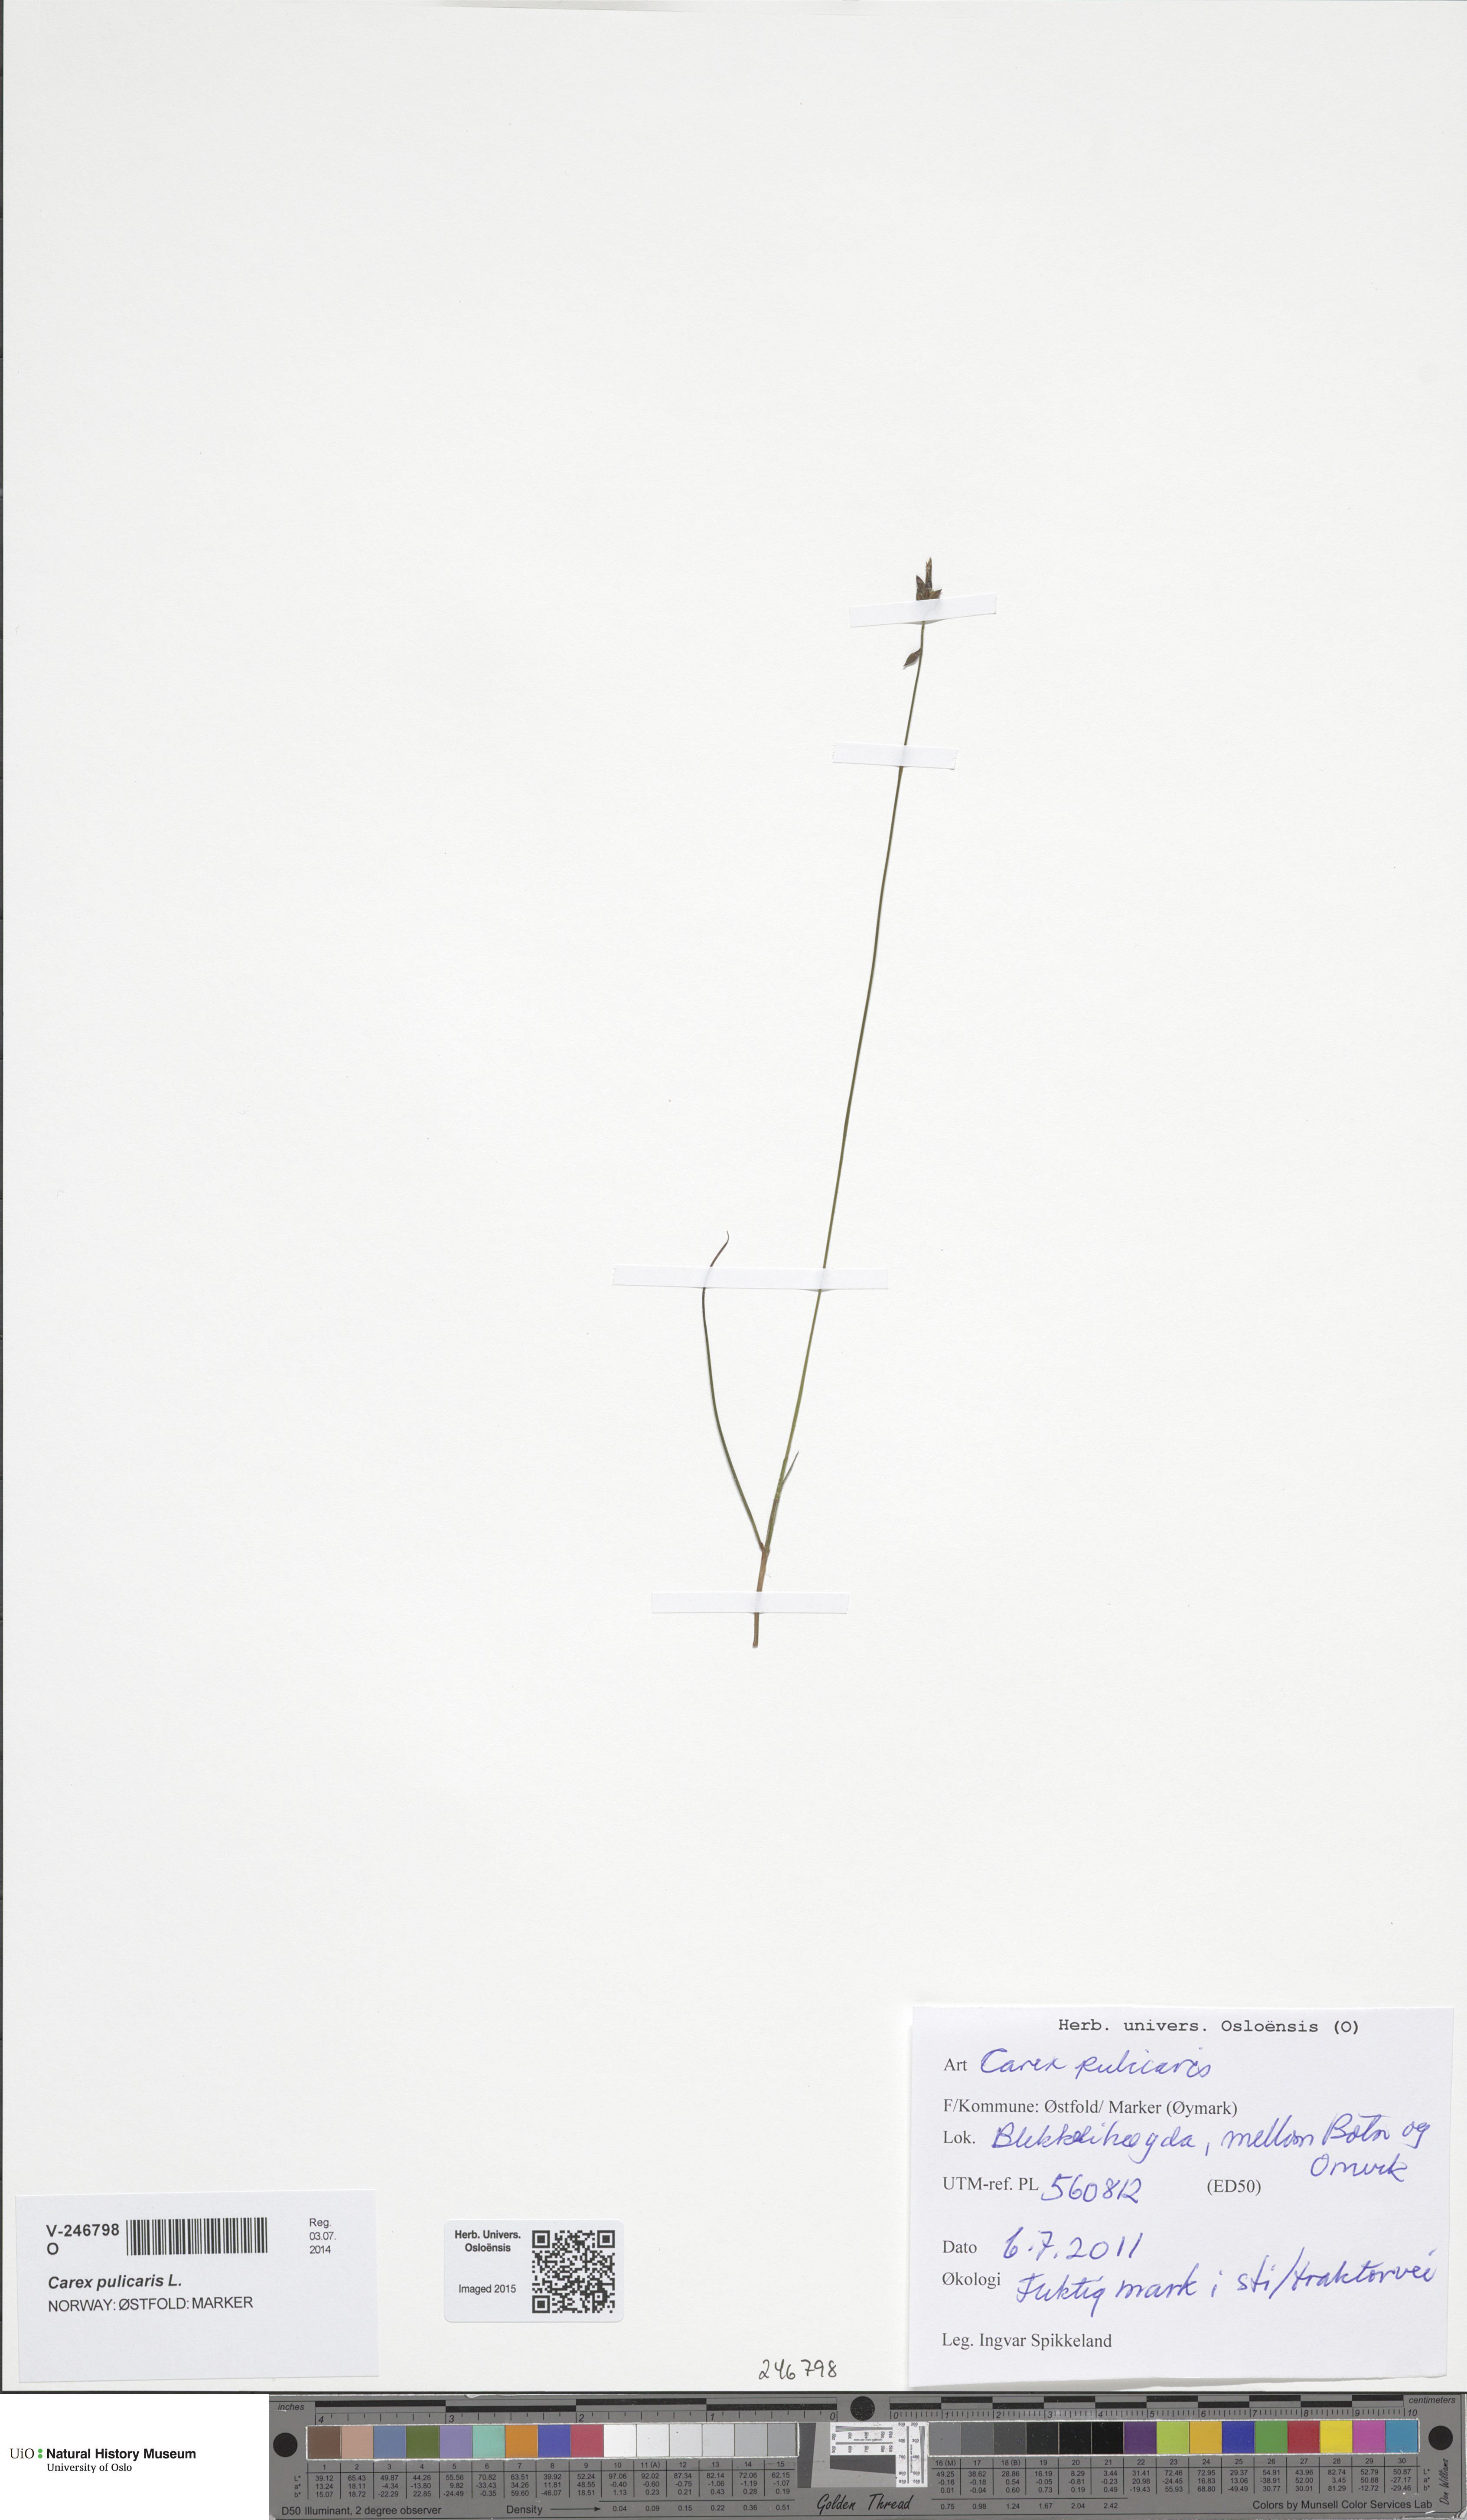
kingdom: Plantae
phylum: Tracheophyta
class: Liliopsida
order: Poales
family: Cyperaceae
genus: Carex
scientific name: Carex pulicaris
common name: Flea sedge
